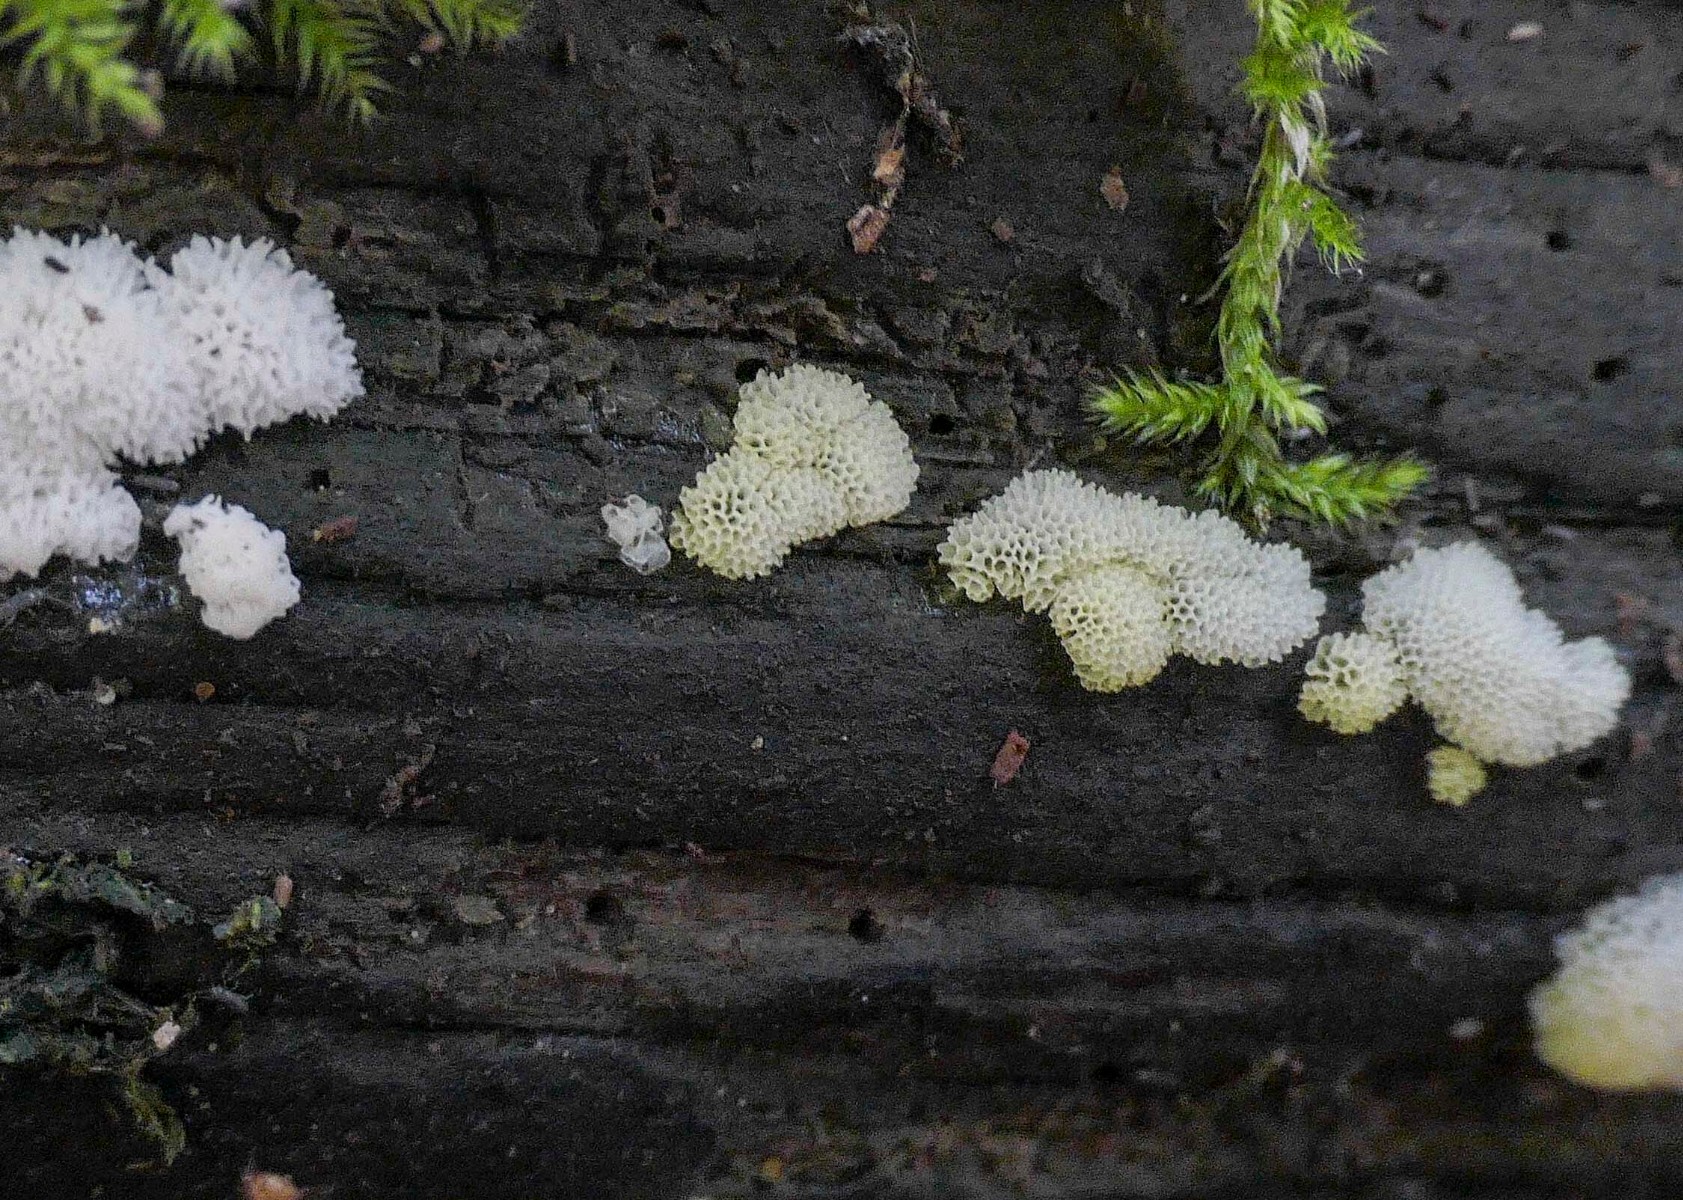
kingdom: Protozoa
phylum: Mycetozoa
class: Protosteliomycetes
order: Ceratiomyxales
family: Ceratiomyxaceae
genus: Ceratiomyxa
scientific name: Ceratiomyxa fruticulosa
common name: Honeycomb coral slime mold
